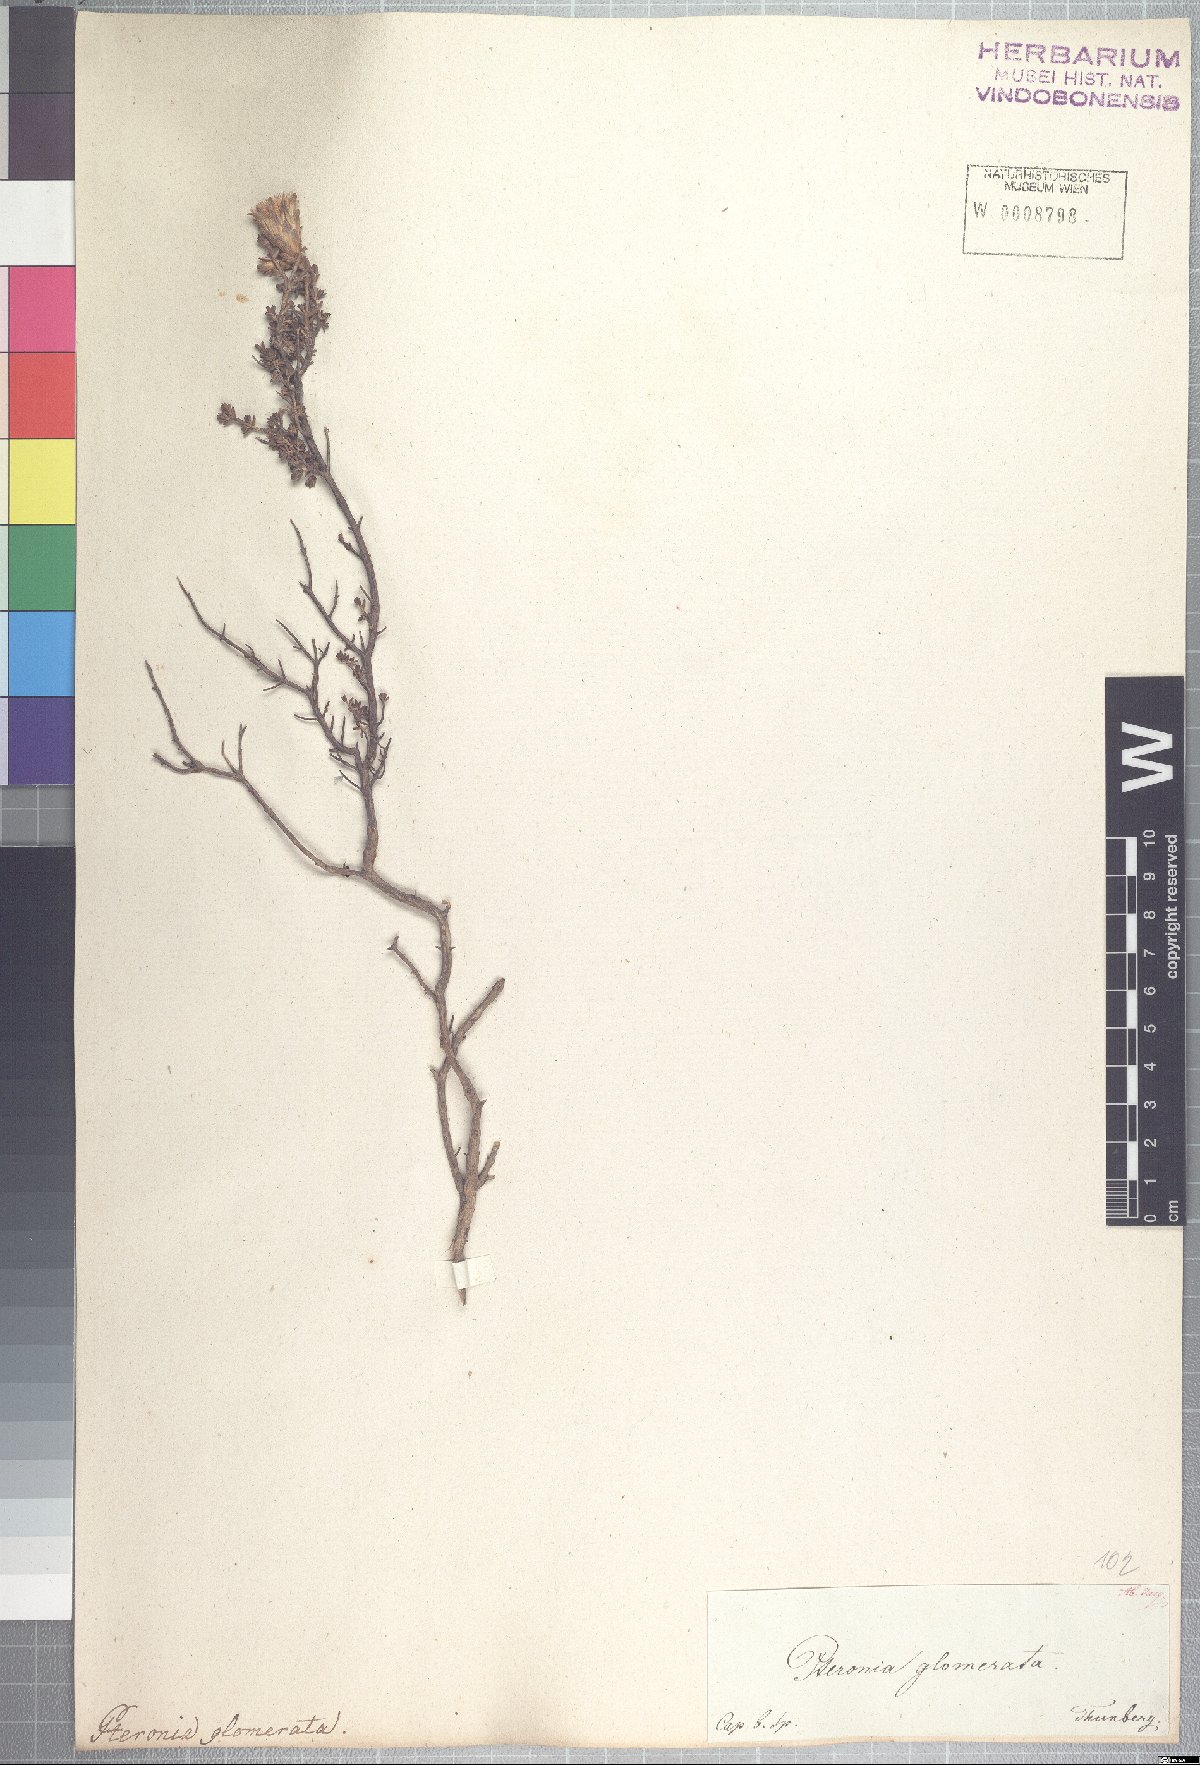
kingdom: Plantae
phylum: Tracheophyta
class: Magnoliopsida
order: Asterales
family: Asteraceae
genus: Pteronia
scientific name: Pteronia glomerata
